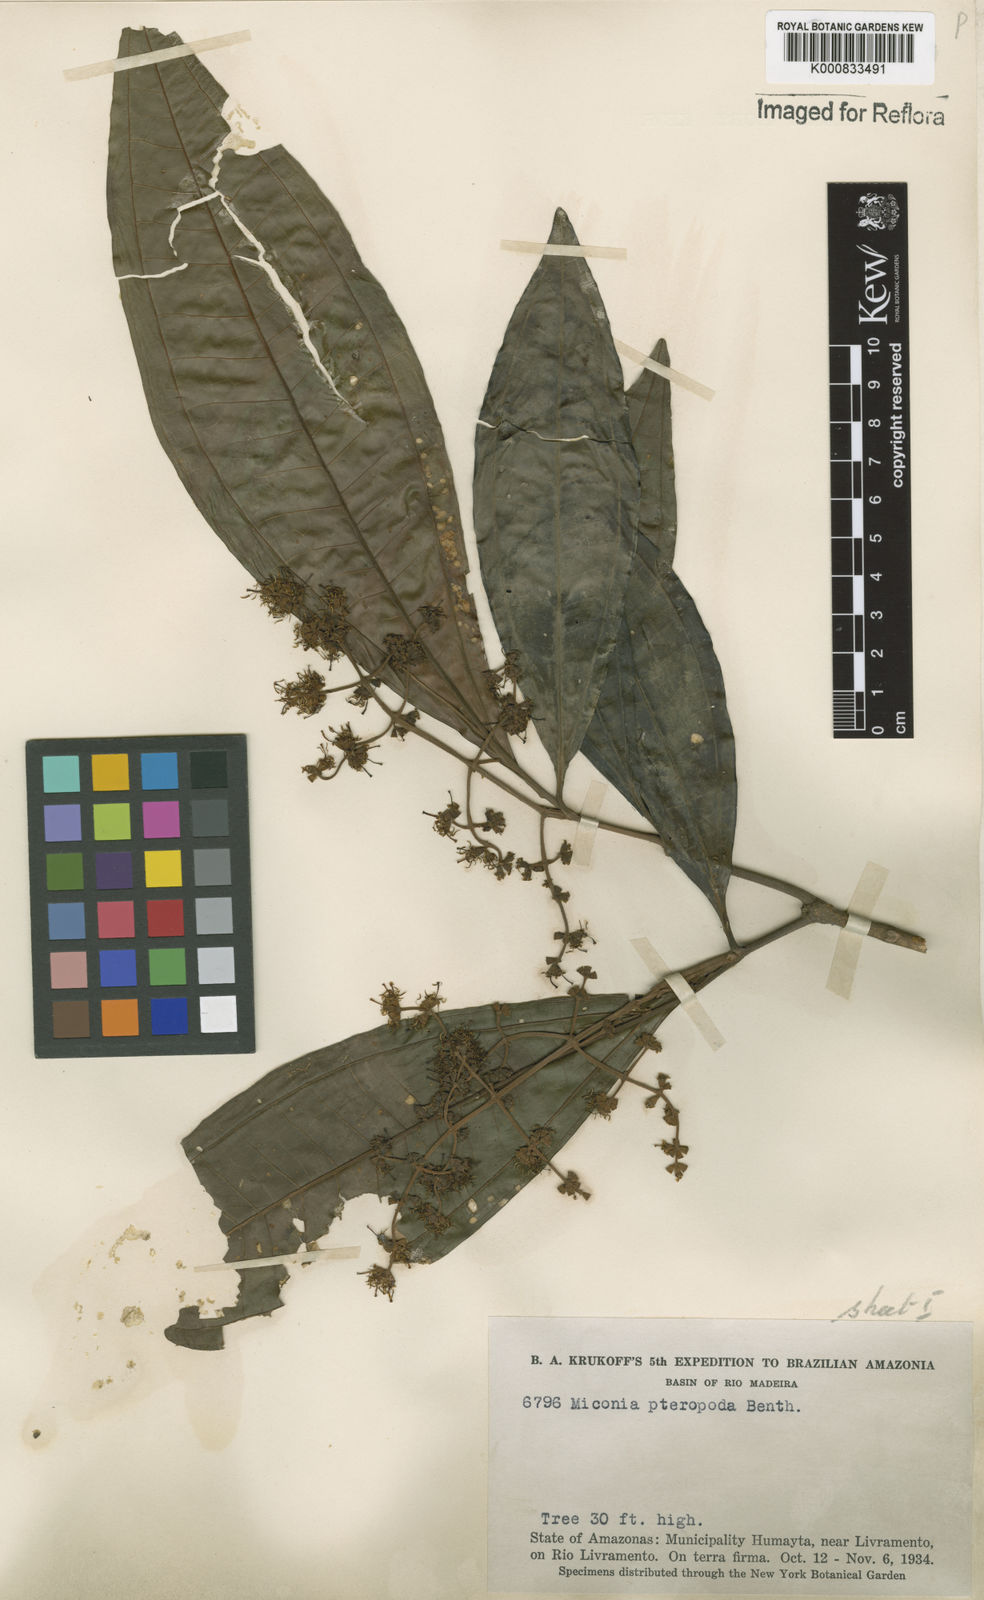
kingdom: Plantae
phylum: Tracheophyta
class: Magnoliopsida
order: Myrtales
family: Melastomataceae
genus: Miconia
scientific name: Miconia umbrosa
